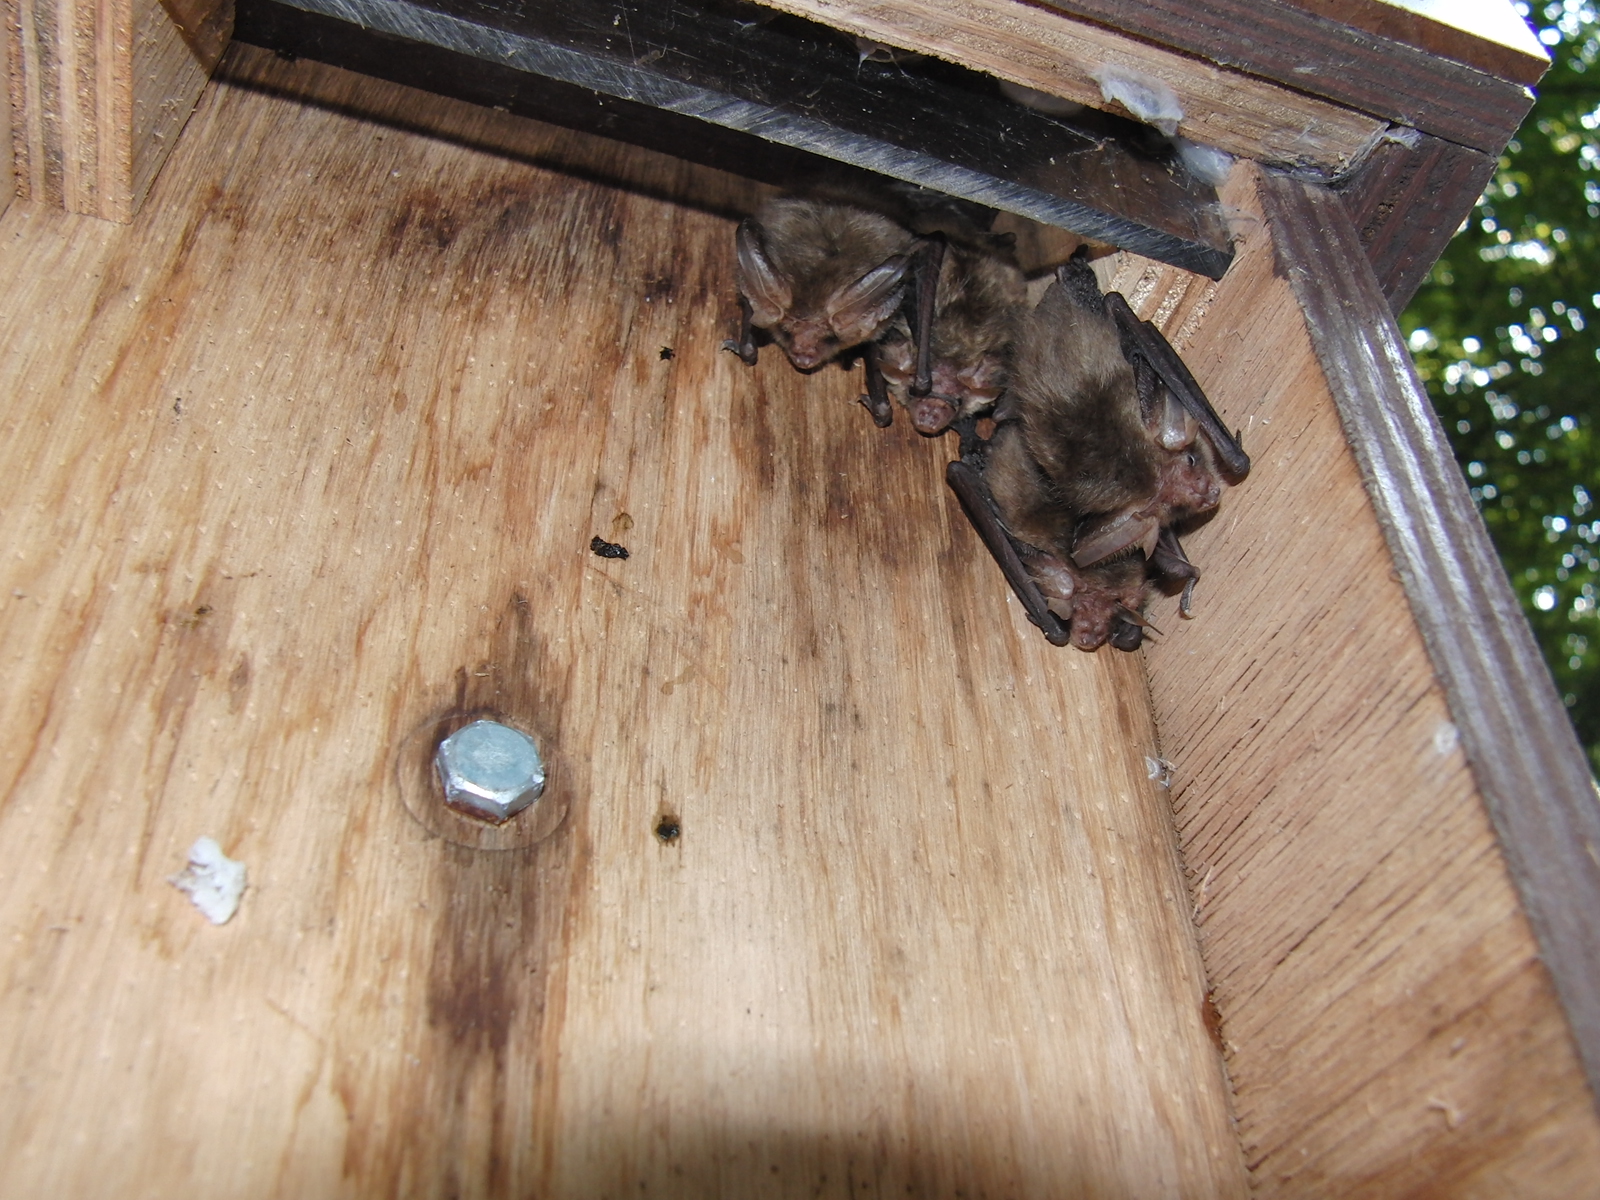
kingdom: Animalia
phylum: Chordata
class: Mammalia
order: Chiroptera
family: Vespertilionidae
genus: Plecotus
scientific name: Plecotus auritus
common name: Brown long-eared bat
